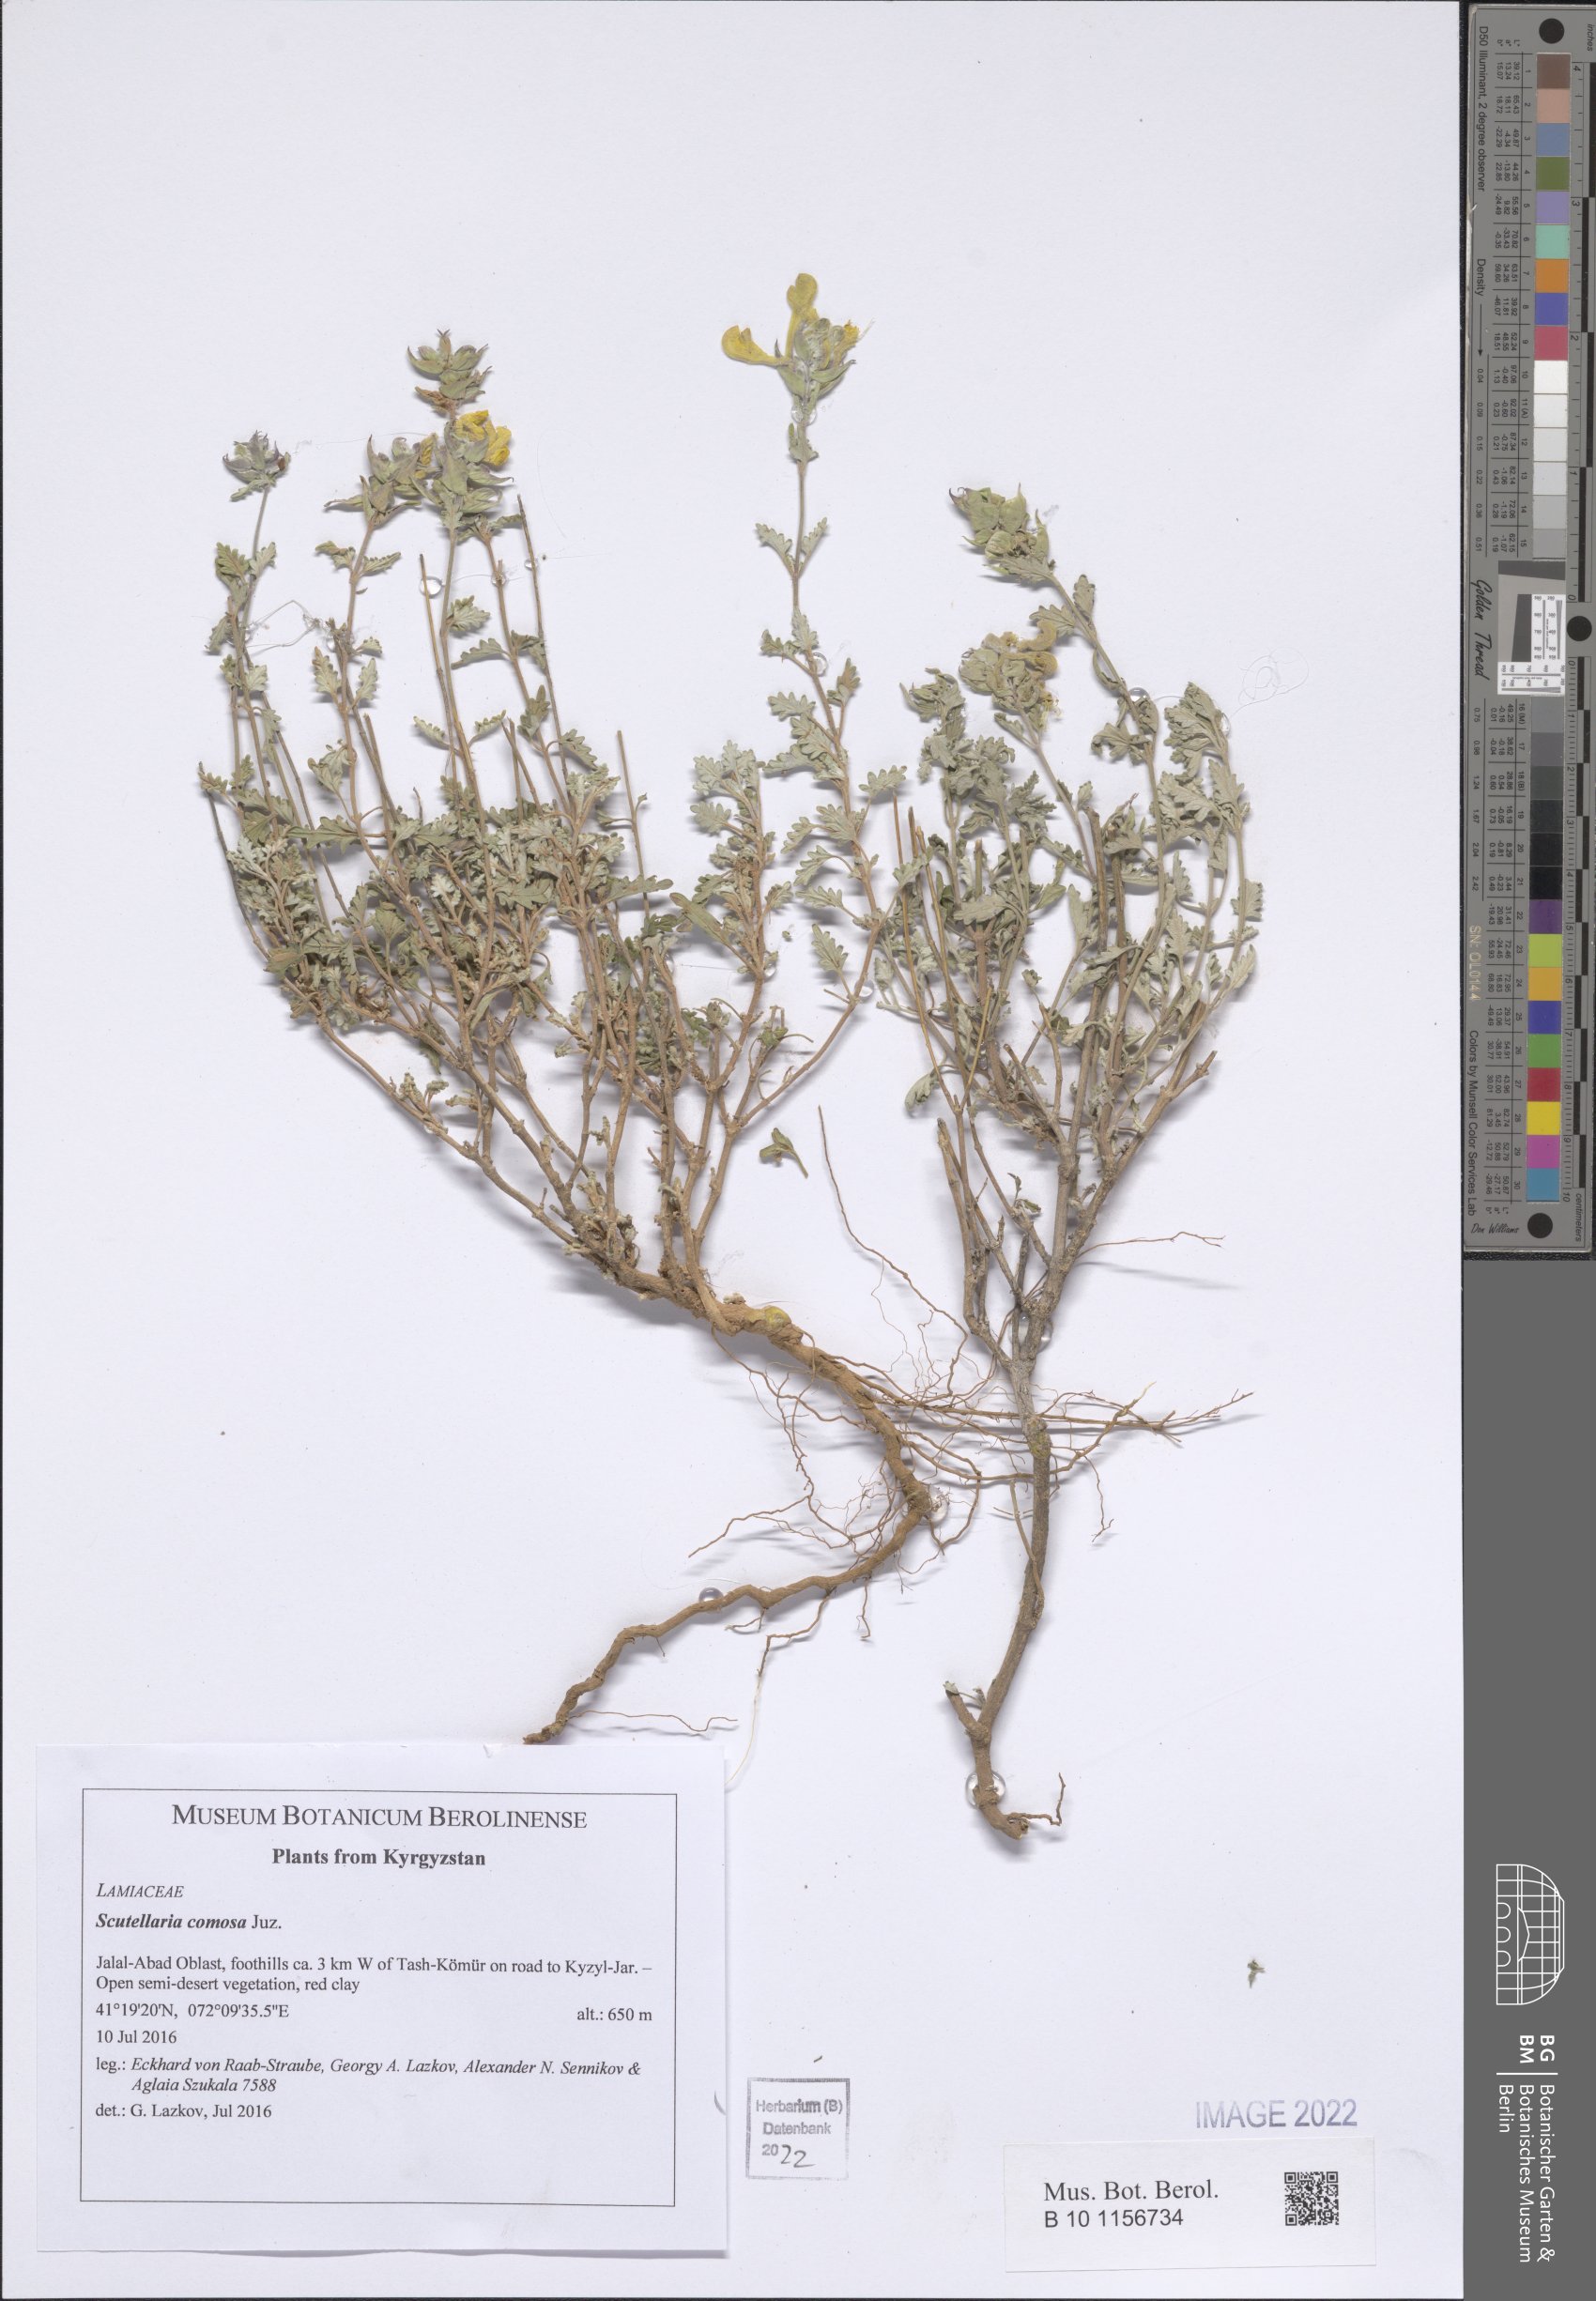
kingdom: Plantae
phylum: Tracheophyta
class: Magnoliopsida
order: Lamiales
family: Lamiaceae
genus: Scutellaria
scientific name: Scutellaria comosa
